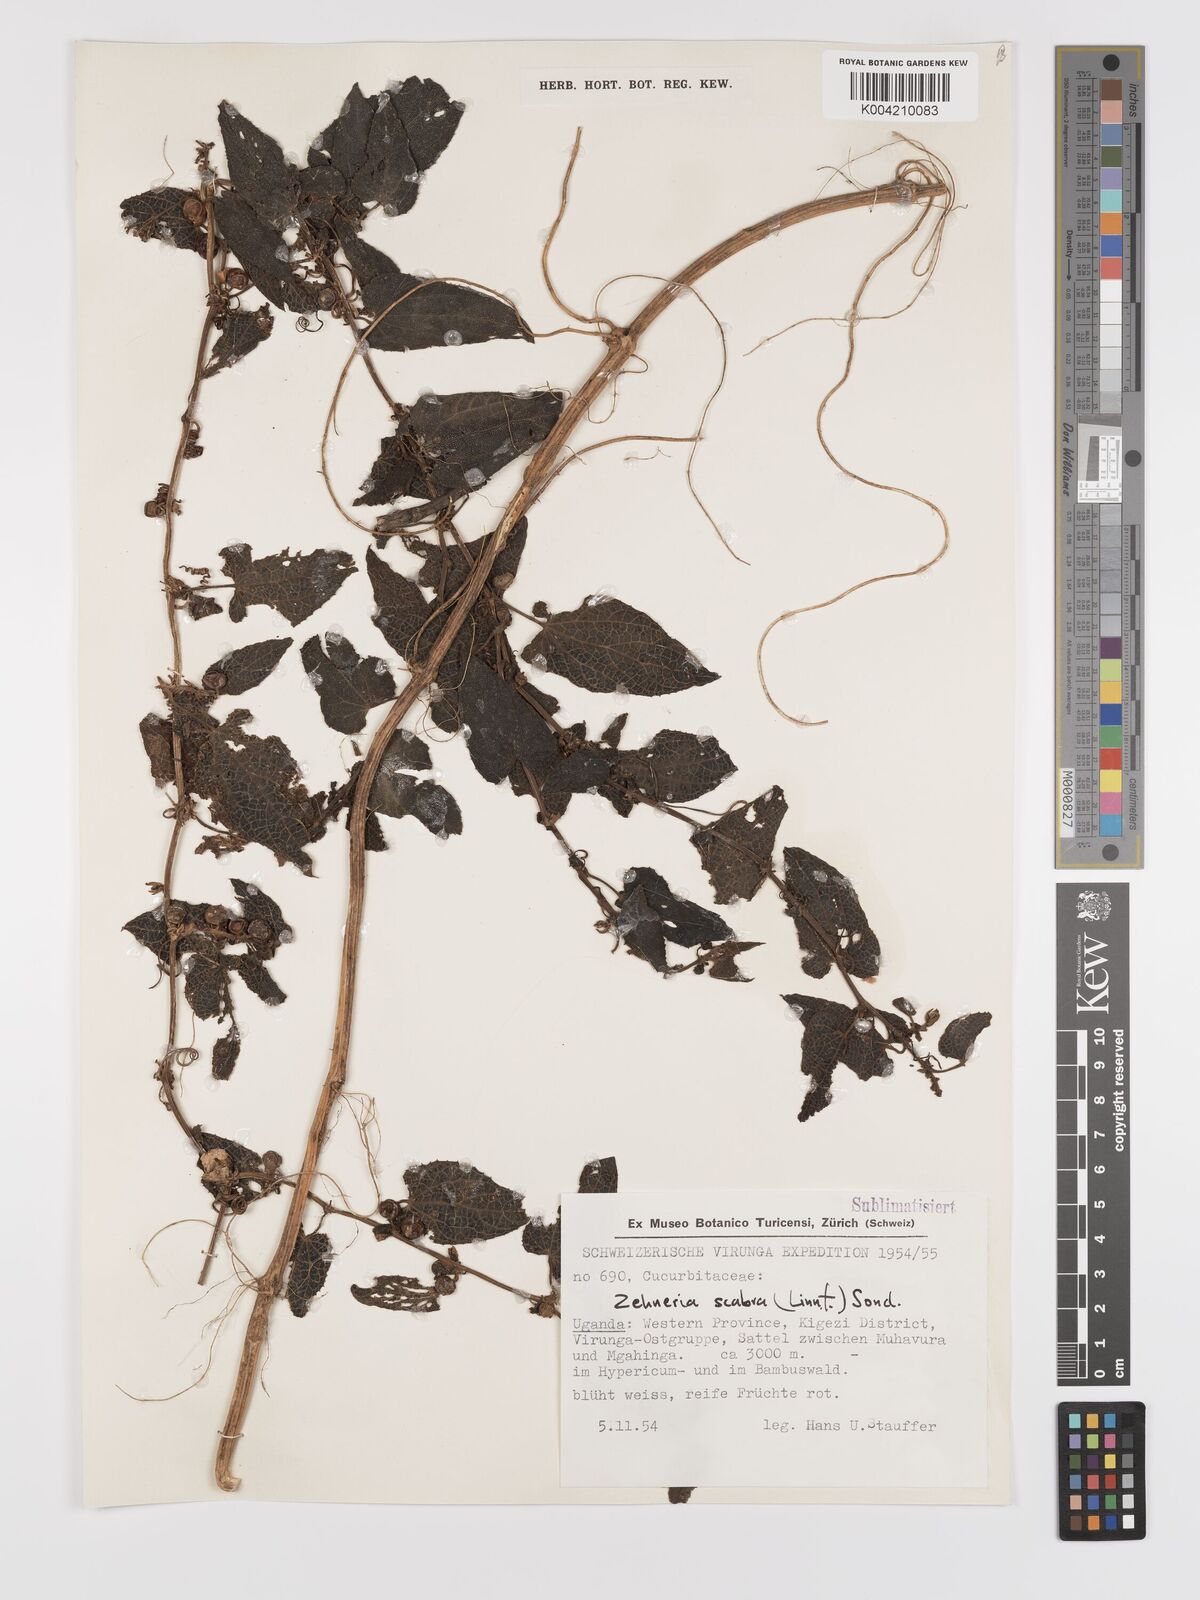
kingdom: Plantae
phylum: Tracheophyta
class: Magnoliopsida
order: Cucurbitales
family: Cucurbitaceae
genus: Zehneria
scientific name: Zehneria scabra
